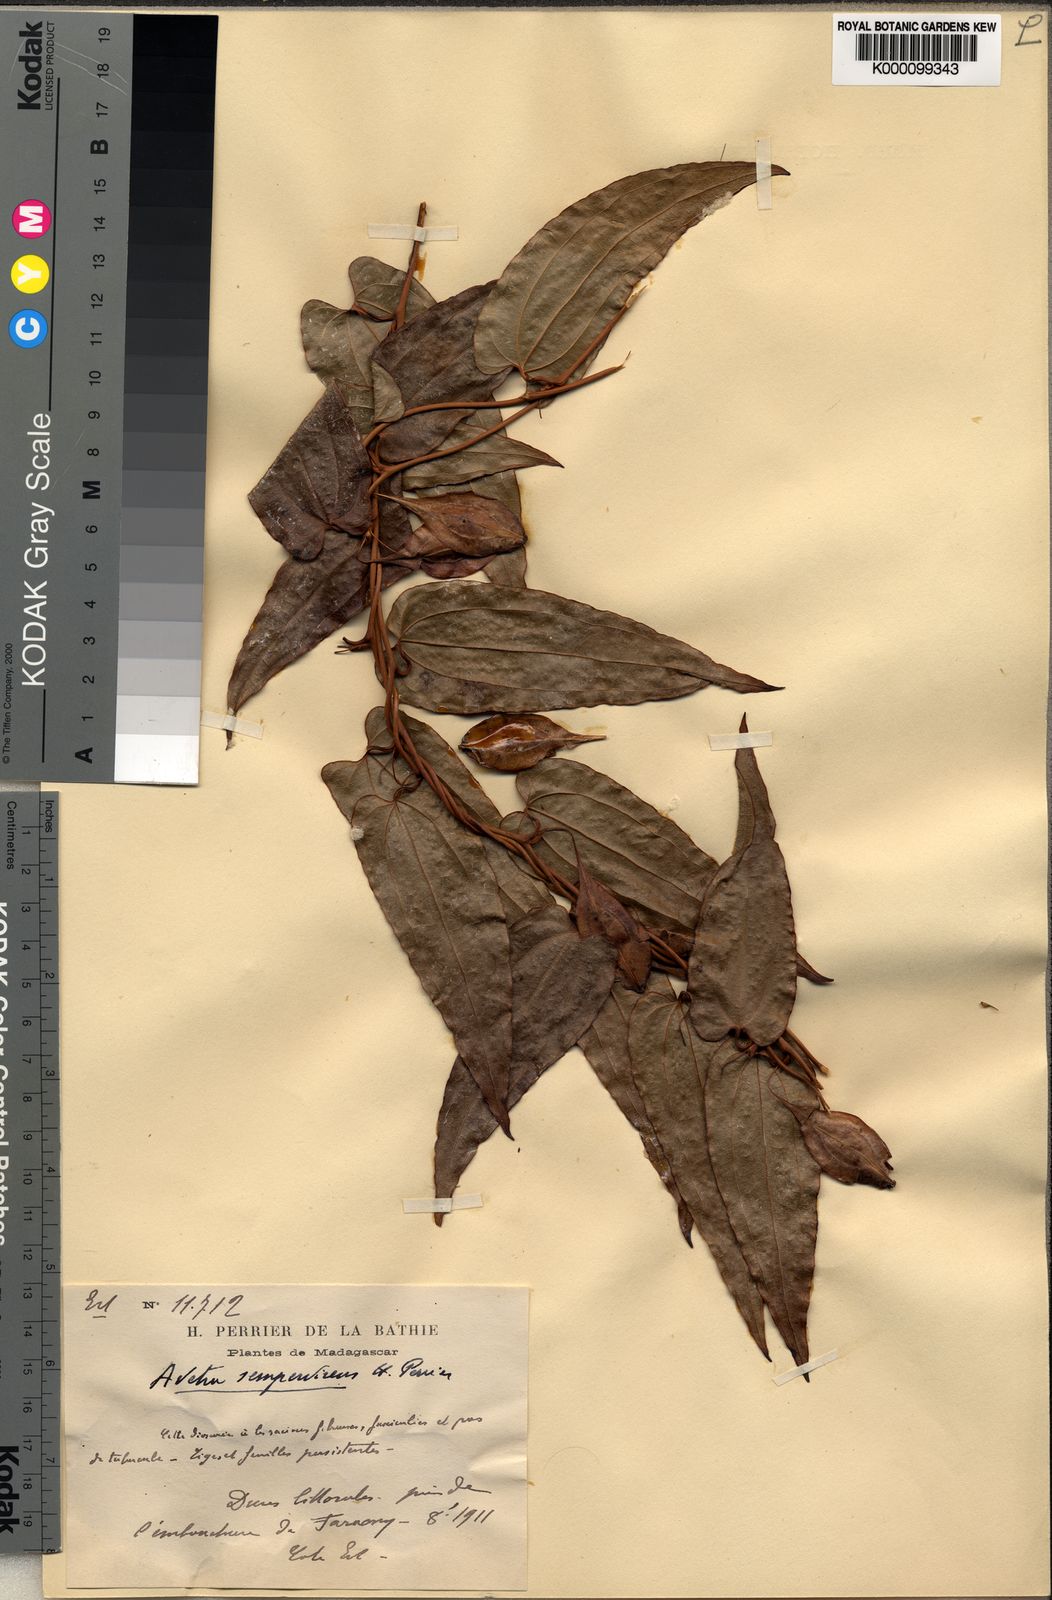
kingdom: Plantae
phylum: Tracheophyta
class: Liliopsida
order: Dioscoreales
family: Dioscoreaceae
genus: Trichopus
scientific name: Trichopus sempervirens
